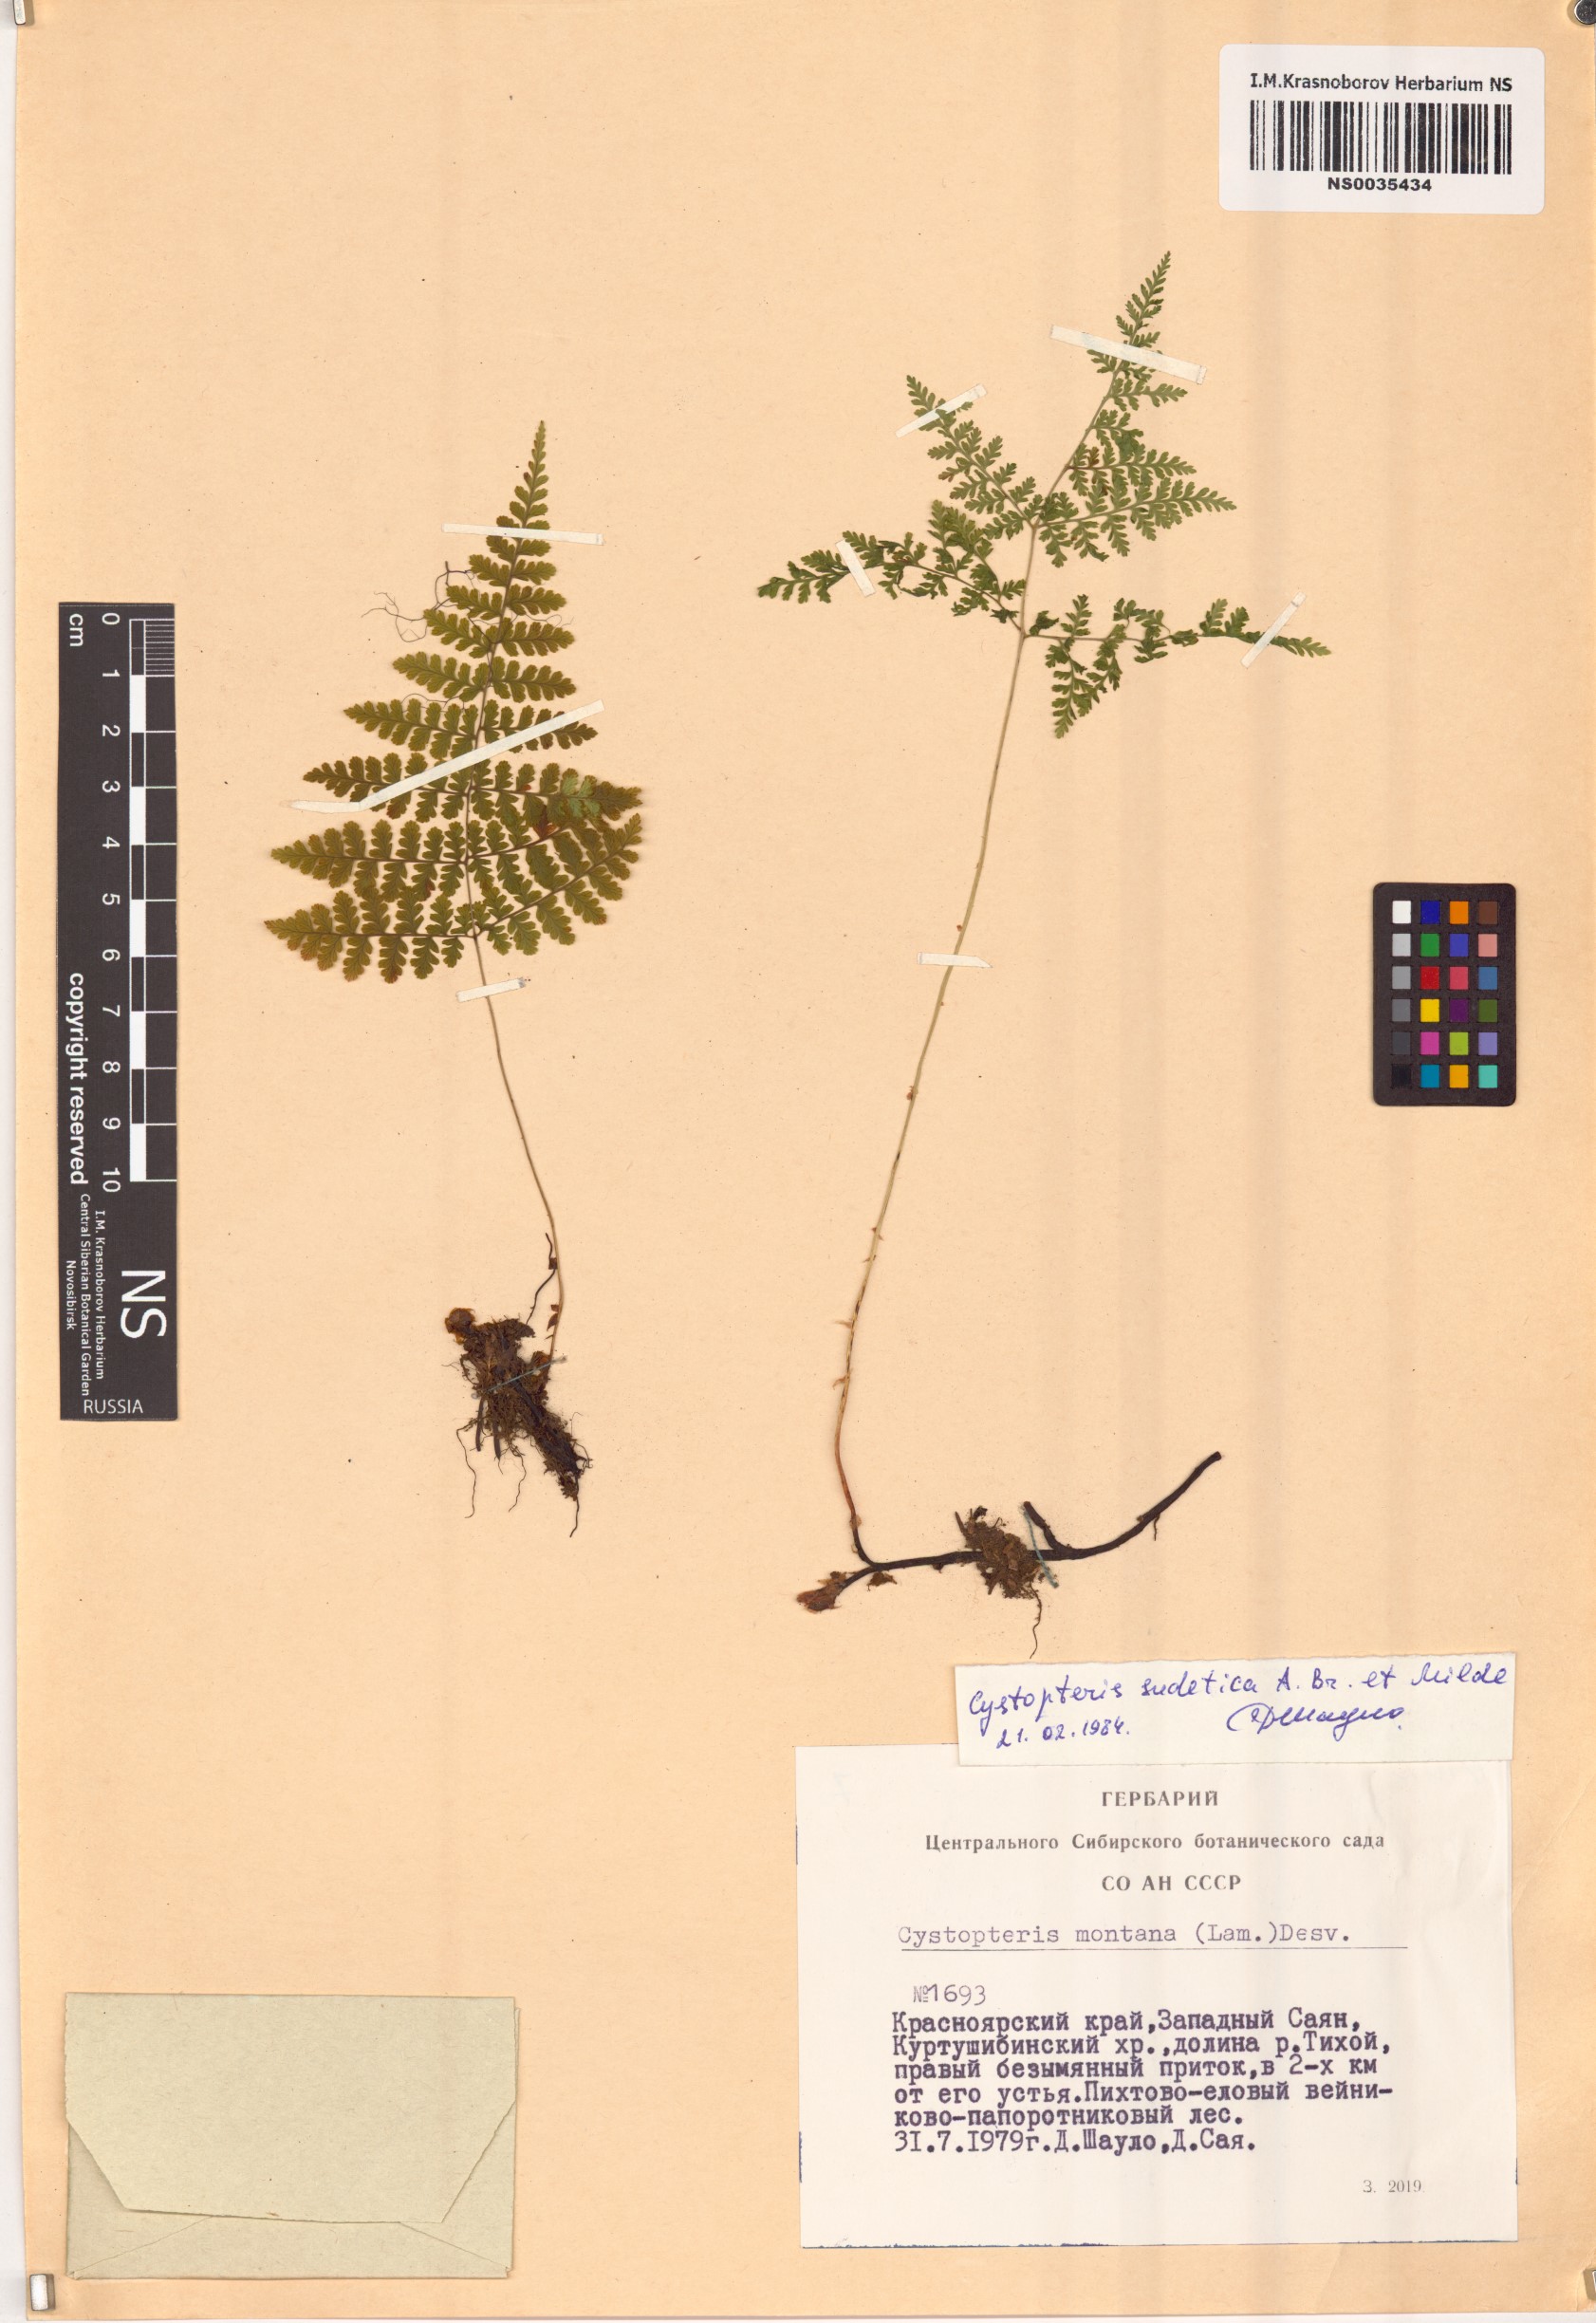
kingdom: Plantae
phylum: Tracheophyta
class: Polypodiopsida
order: Polypodiales
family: Cystopteridaceae
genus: Cystopteris
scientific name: Cystopteris sudetica
